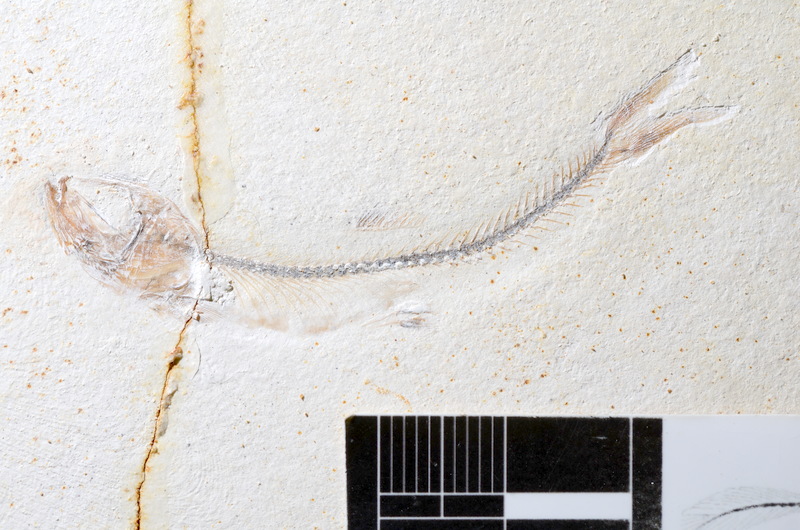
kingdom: Animalia
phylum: Chordata
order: Salmoniformes
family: Orthogonikleithridae
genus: Orthogonikleithrus
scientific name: Orthogonikleithrus hoelli
